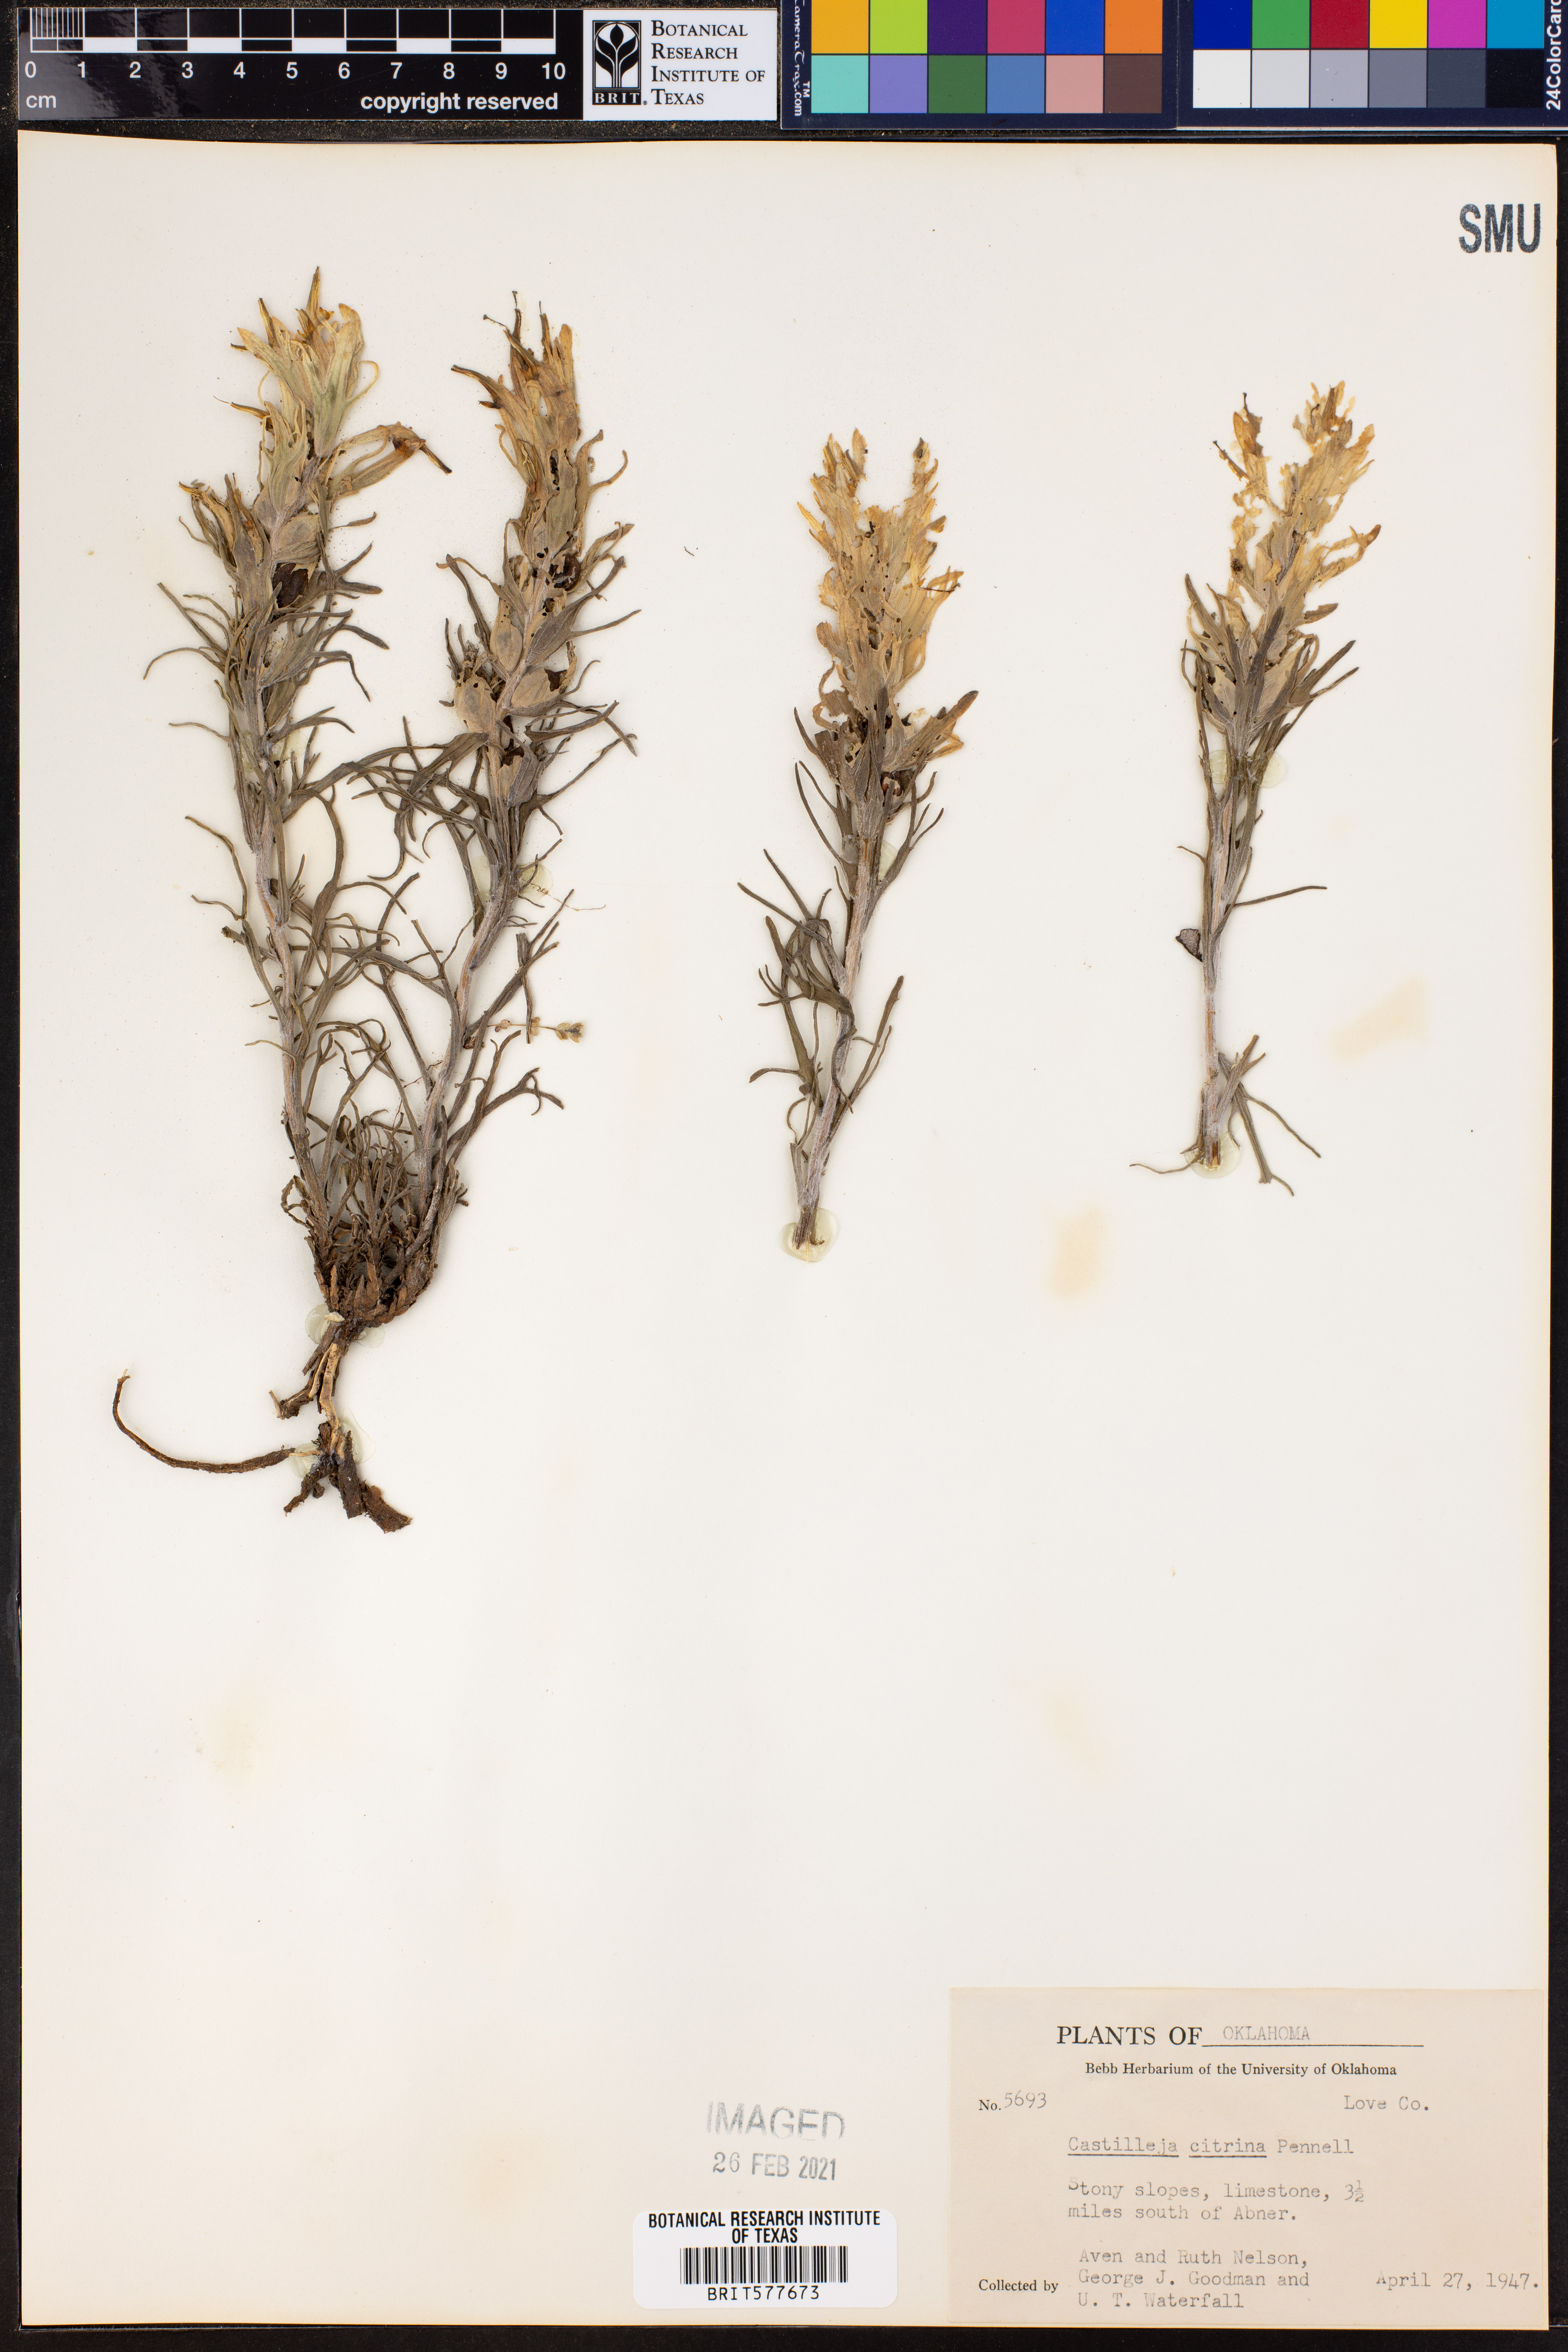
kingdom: Plantae
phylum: Tracheophyta
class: Magnoliopsida
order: Lamiales
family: Orobanchaceae
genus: Castilleja
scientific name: Castilleja citrina
